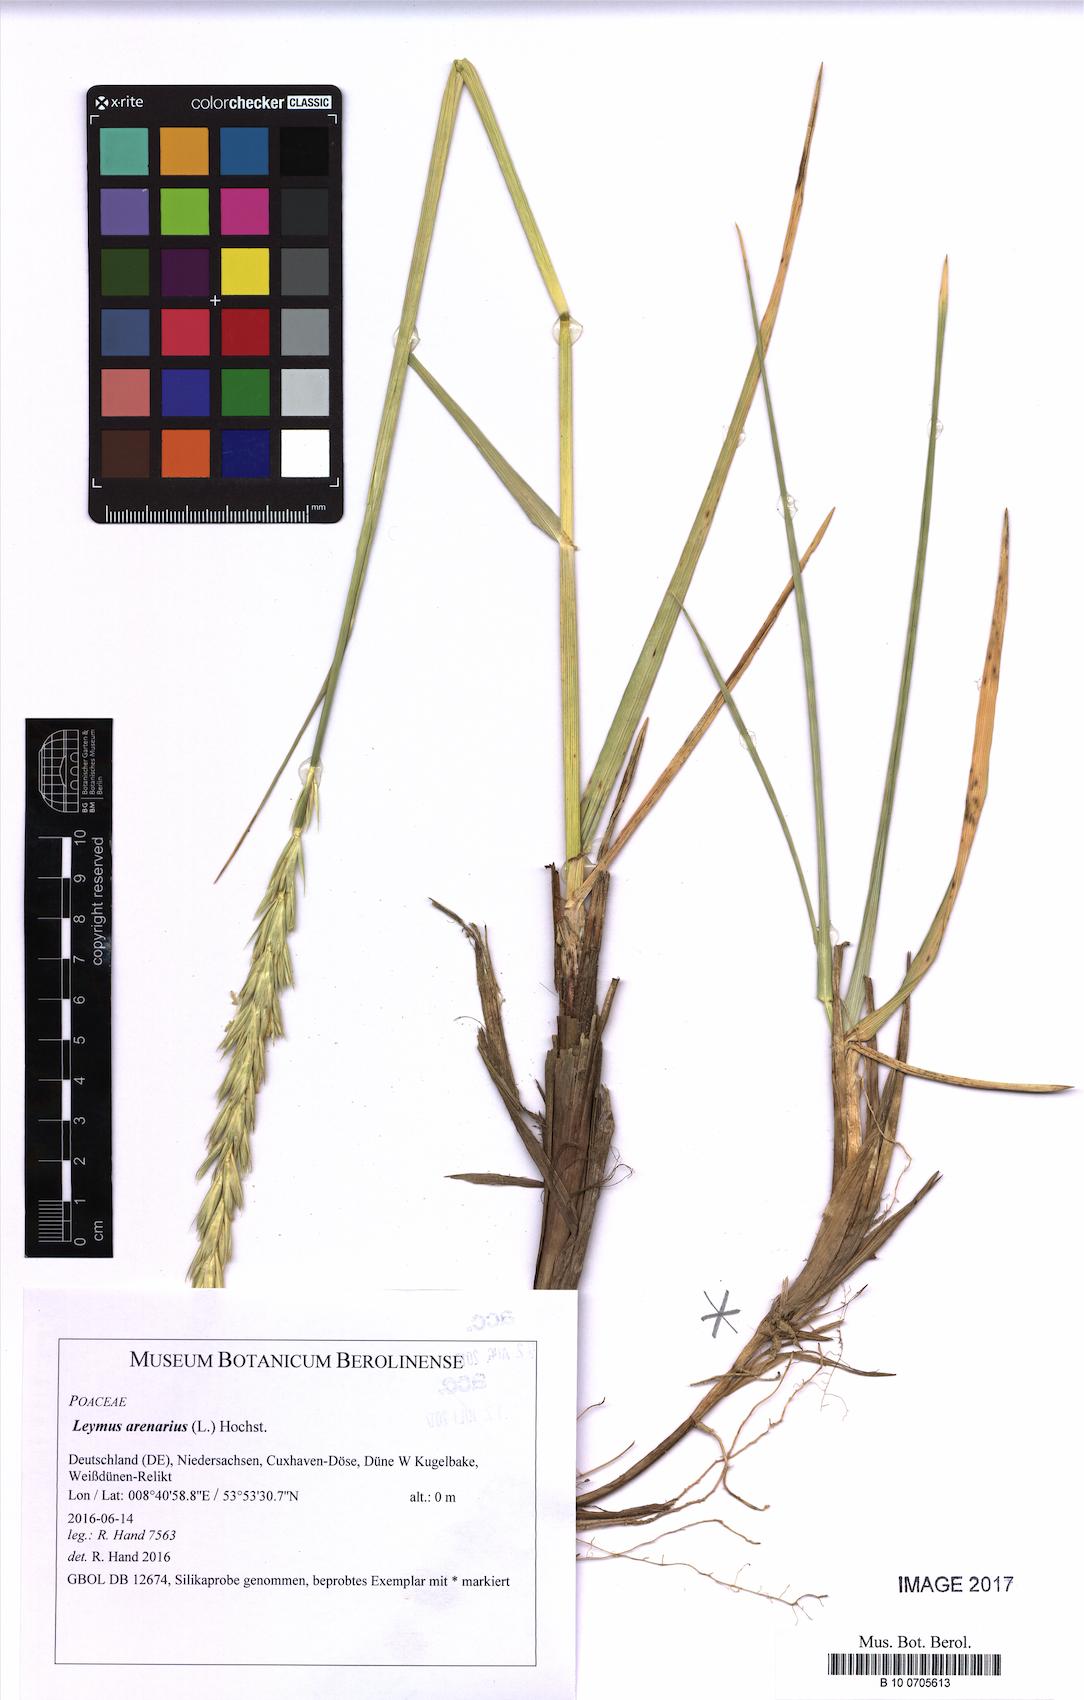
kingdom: Plantae
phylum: Tracheophyta
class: Liliopsida
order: Poales
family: Poaceae
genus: Leymus
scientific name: Leymus arenarius
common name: Lyme-grass
